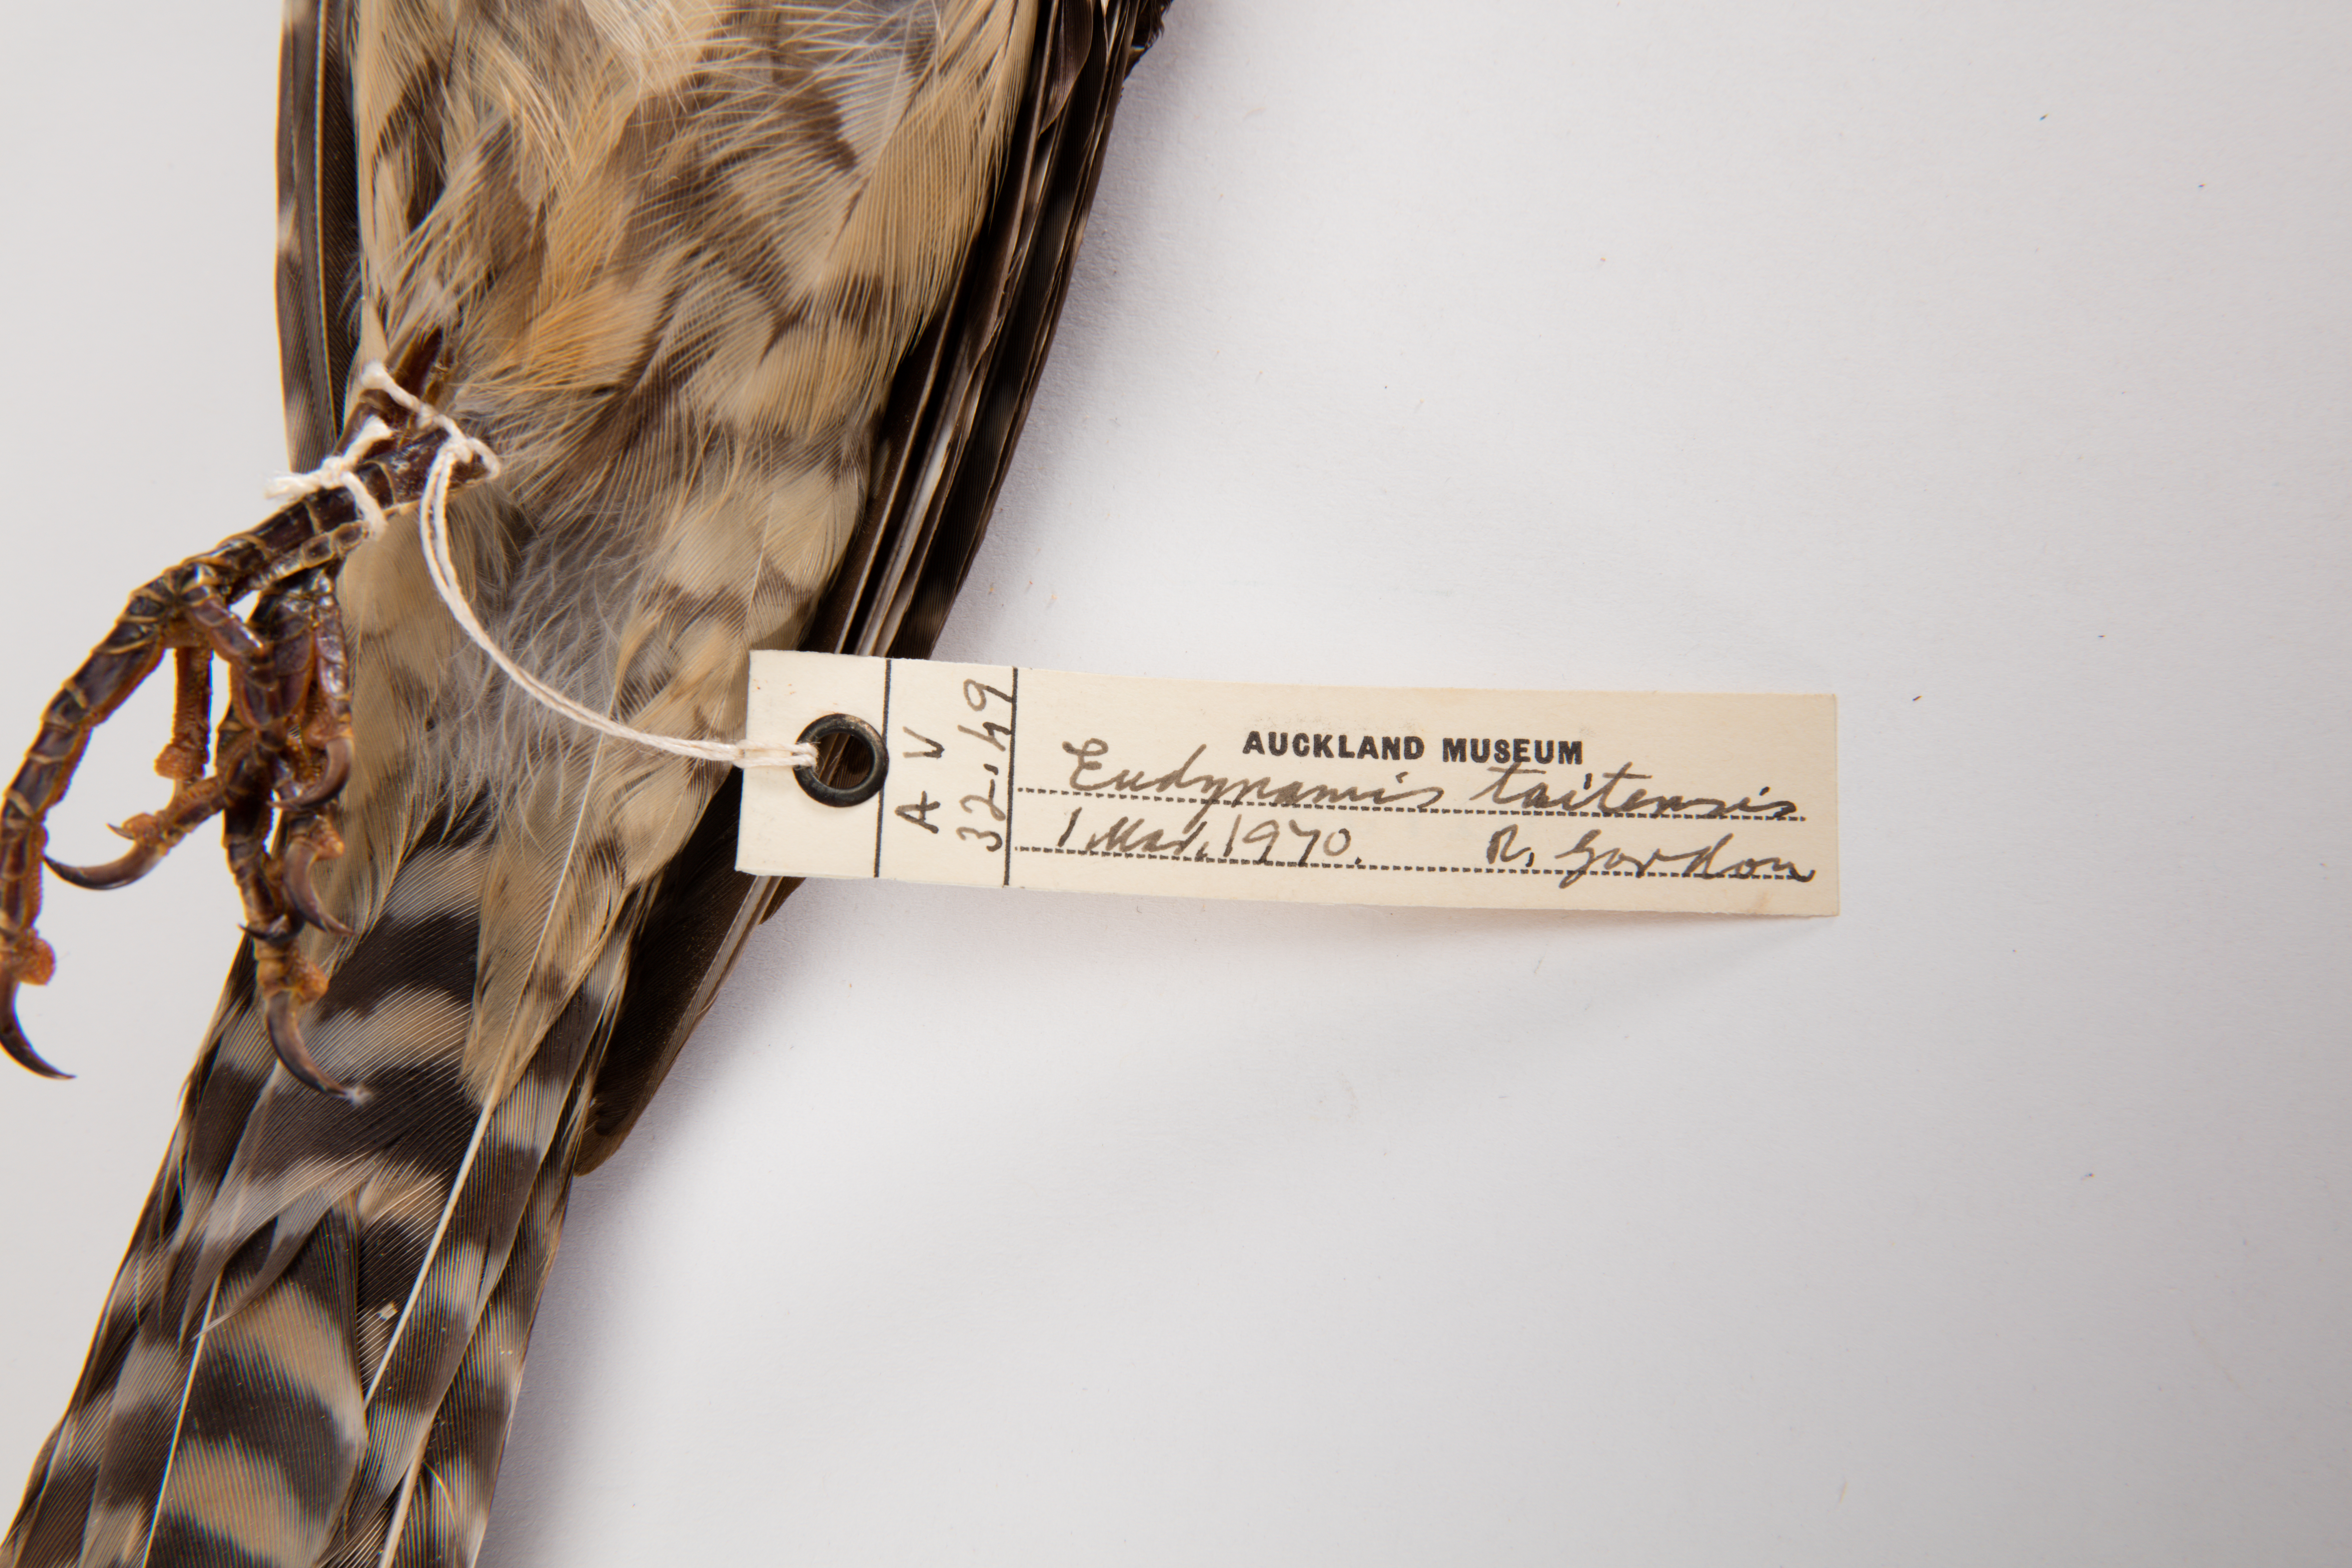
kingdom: Animalia
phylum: Chordata
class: Aves
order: Cuculiformes
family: Cuculidae
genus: Urodynamis
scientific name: Urodynamis taitensis
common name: Long-tailed koel
